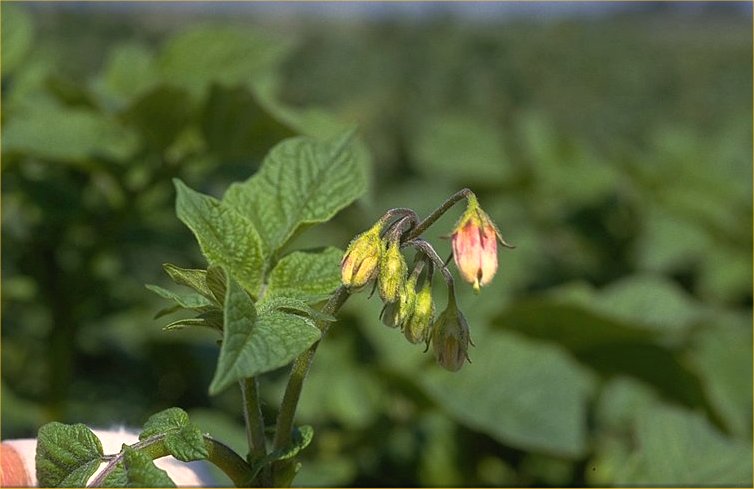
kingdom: Plantae
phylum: Tracheophyta
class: Magnoliopsida
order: Solanales
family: Solanaceae
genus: Solanum
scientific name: Solanum tuberosum
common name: Potato
